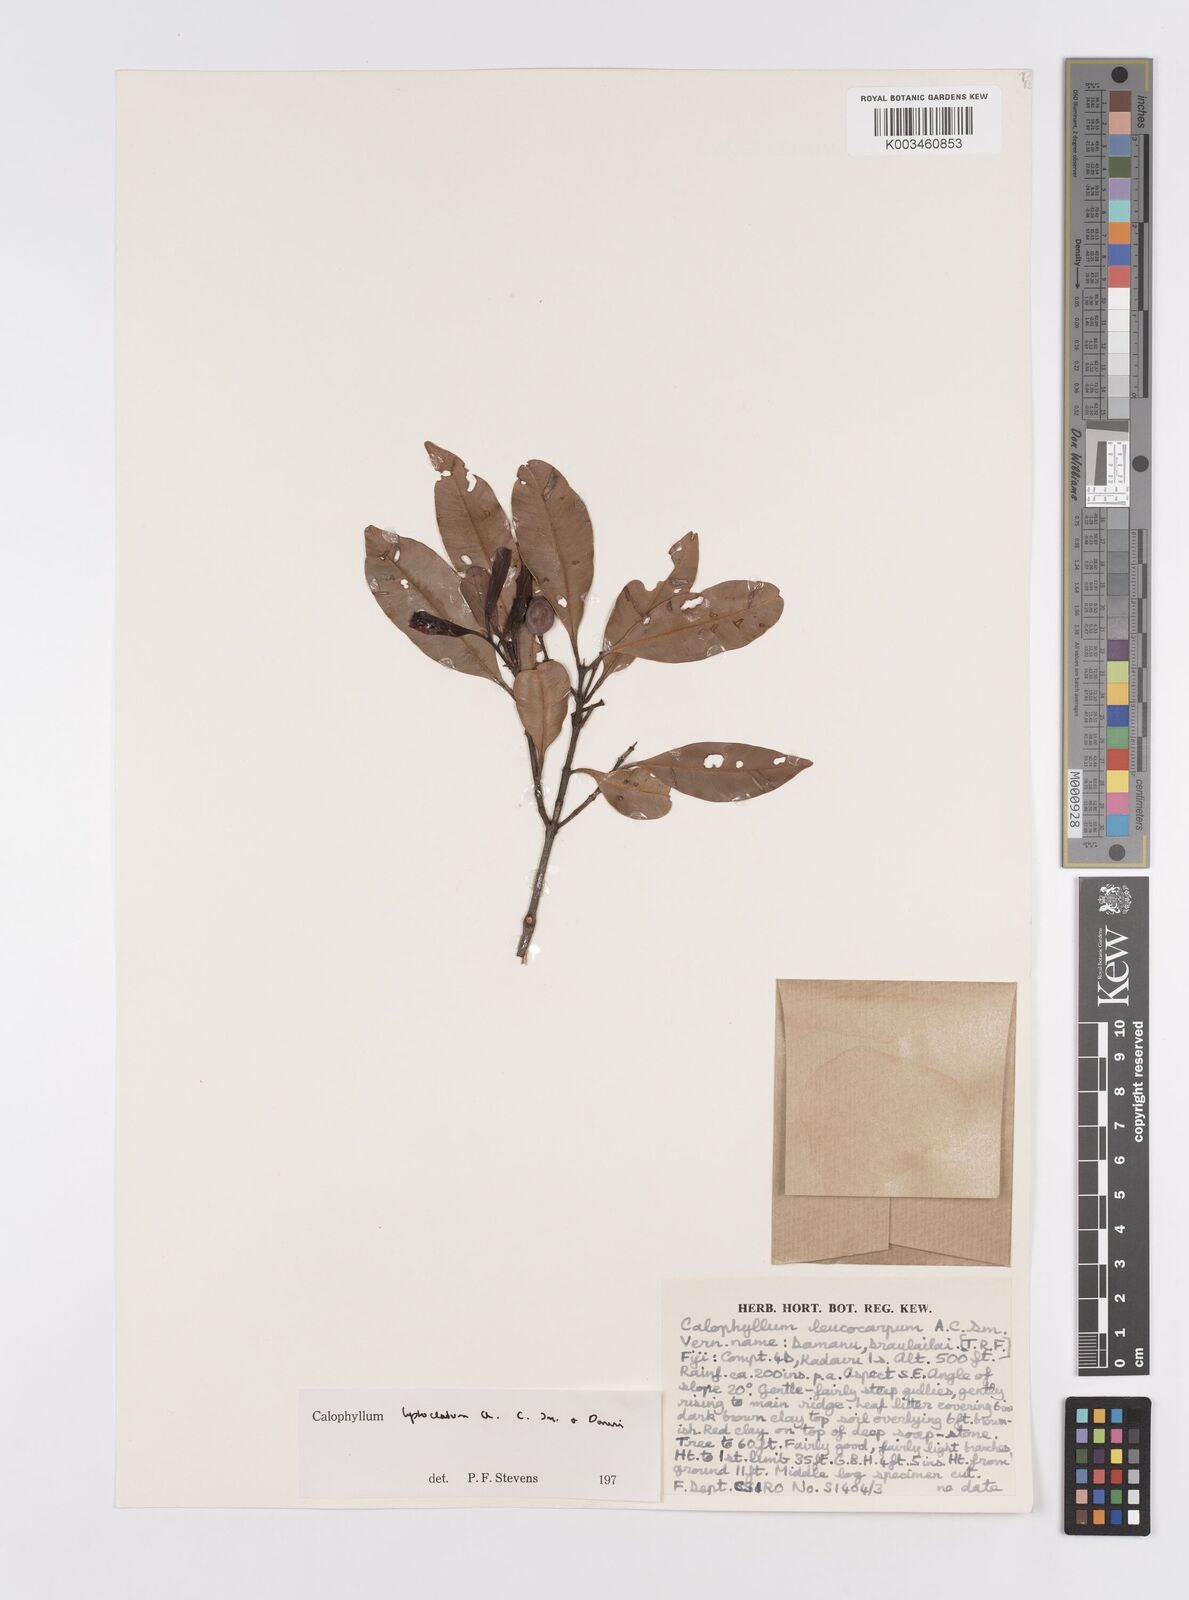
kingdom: Plantae
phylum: Tracheophyta
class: Magnoliopsida
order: Malpighiales
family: Calophyllaceae
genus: Calophyllum
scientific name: Calophyllum leptocladum
